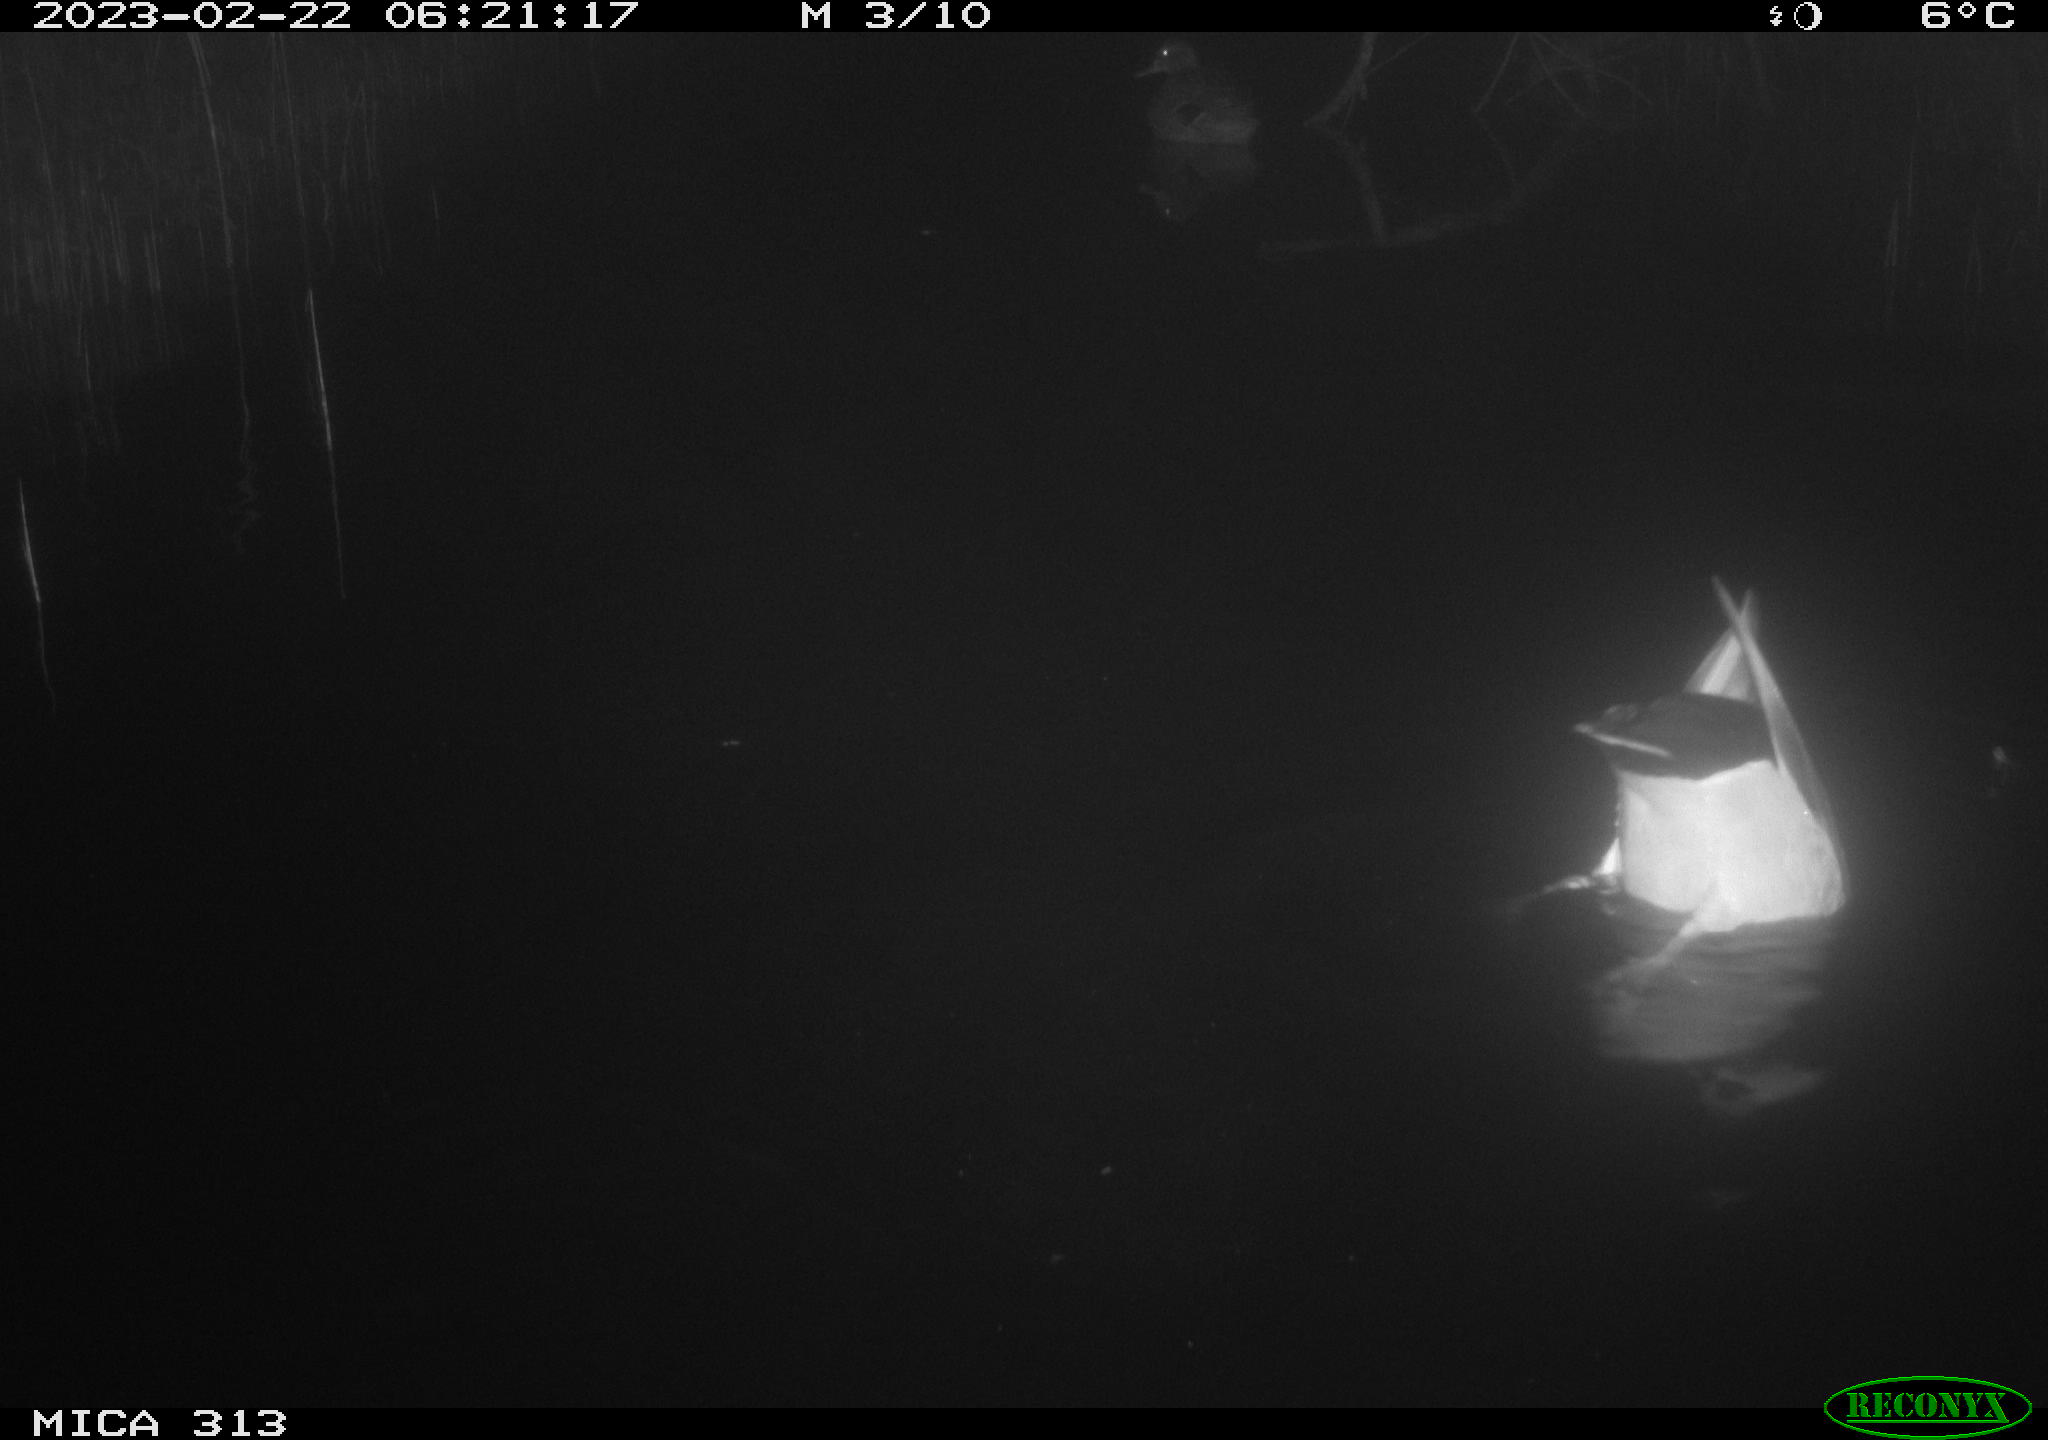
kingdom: Animalia
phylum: Chordata
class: Aves
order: Anseriformes
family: Anatidae
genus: Anas
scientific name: Anas
